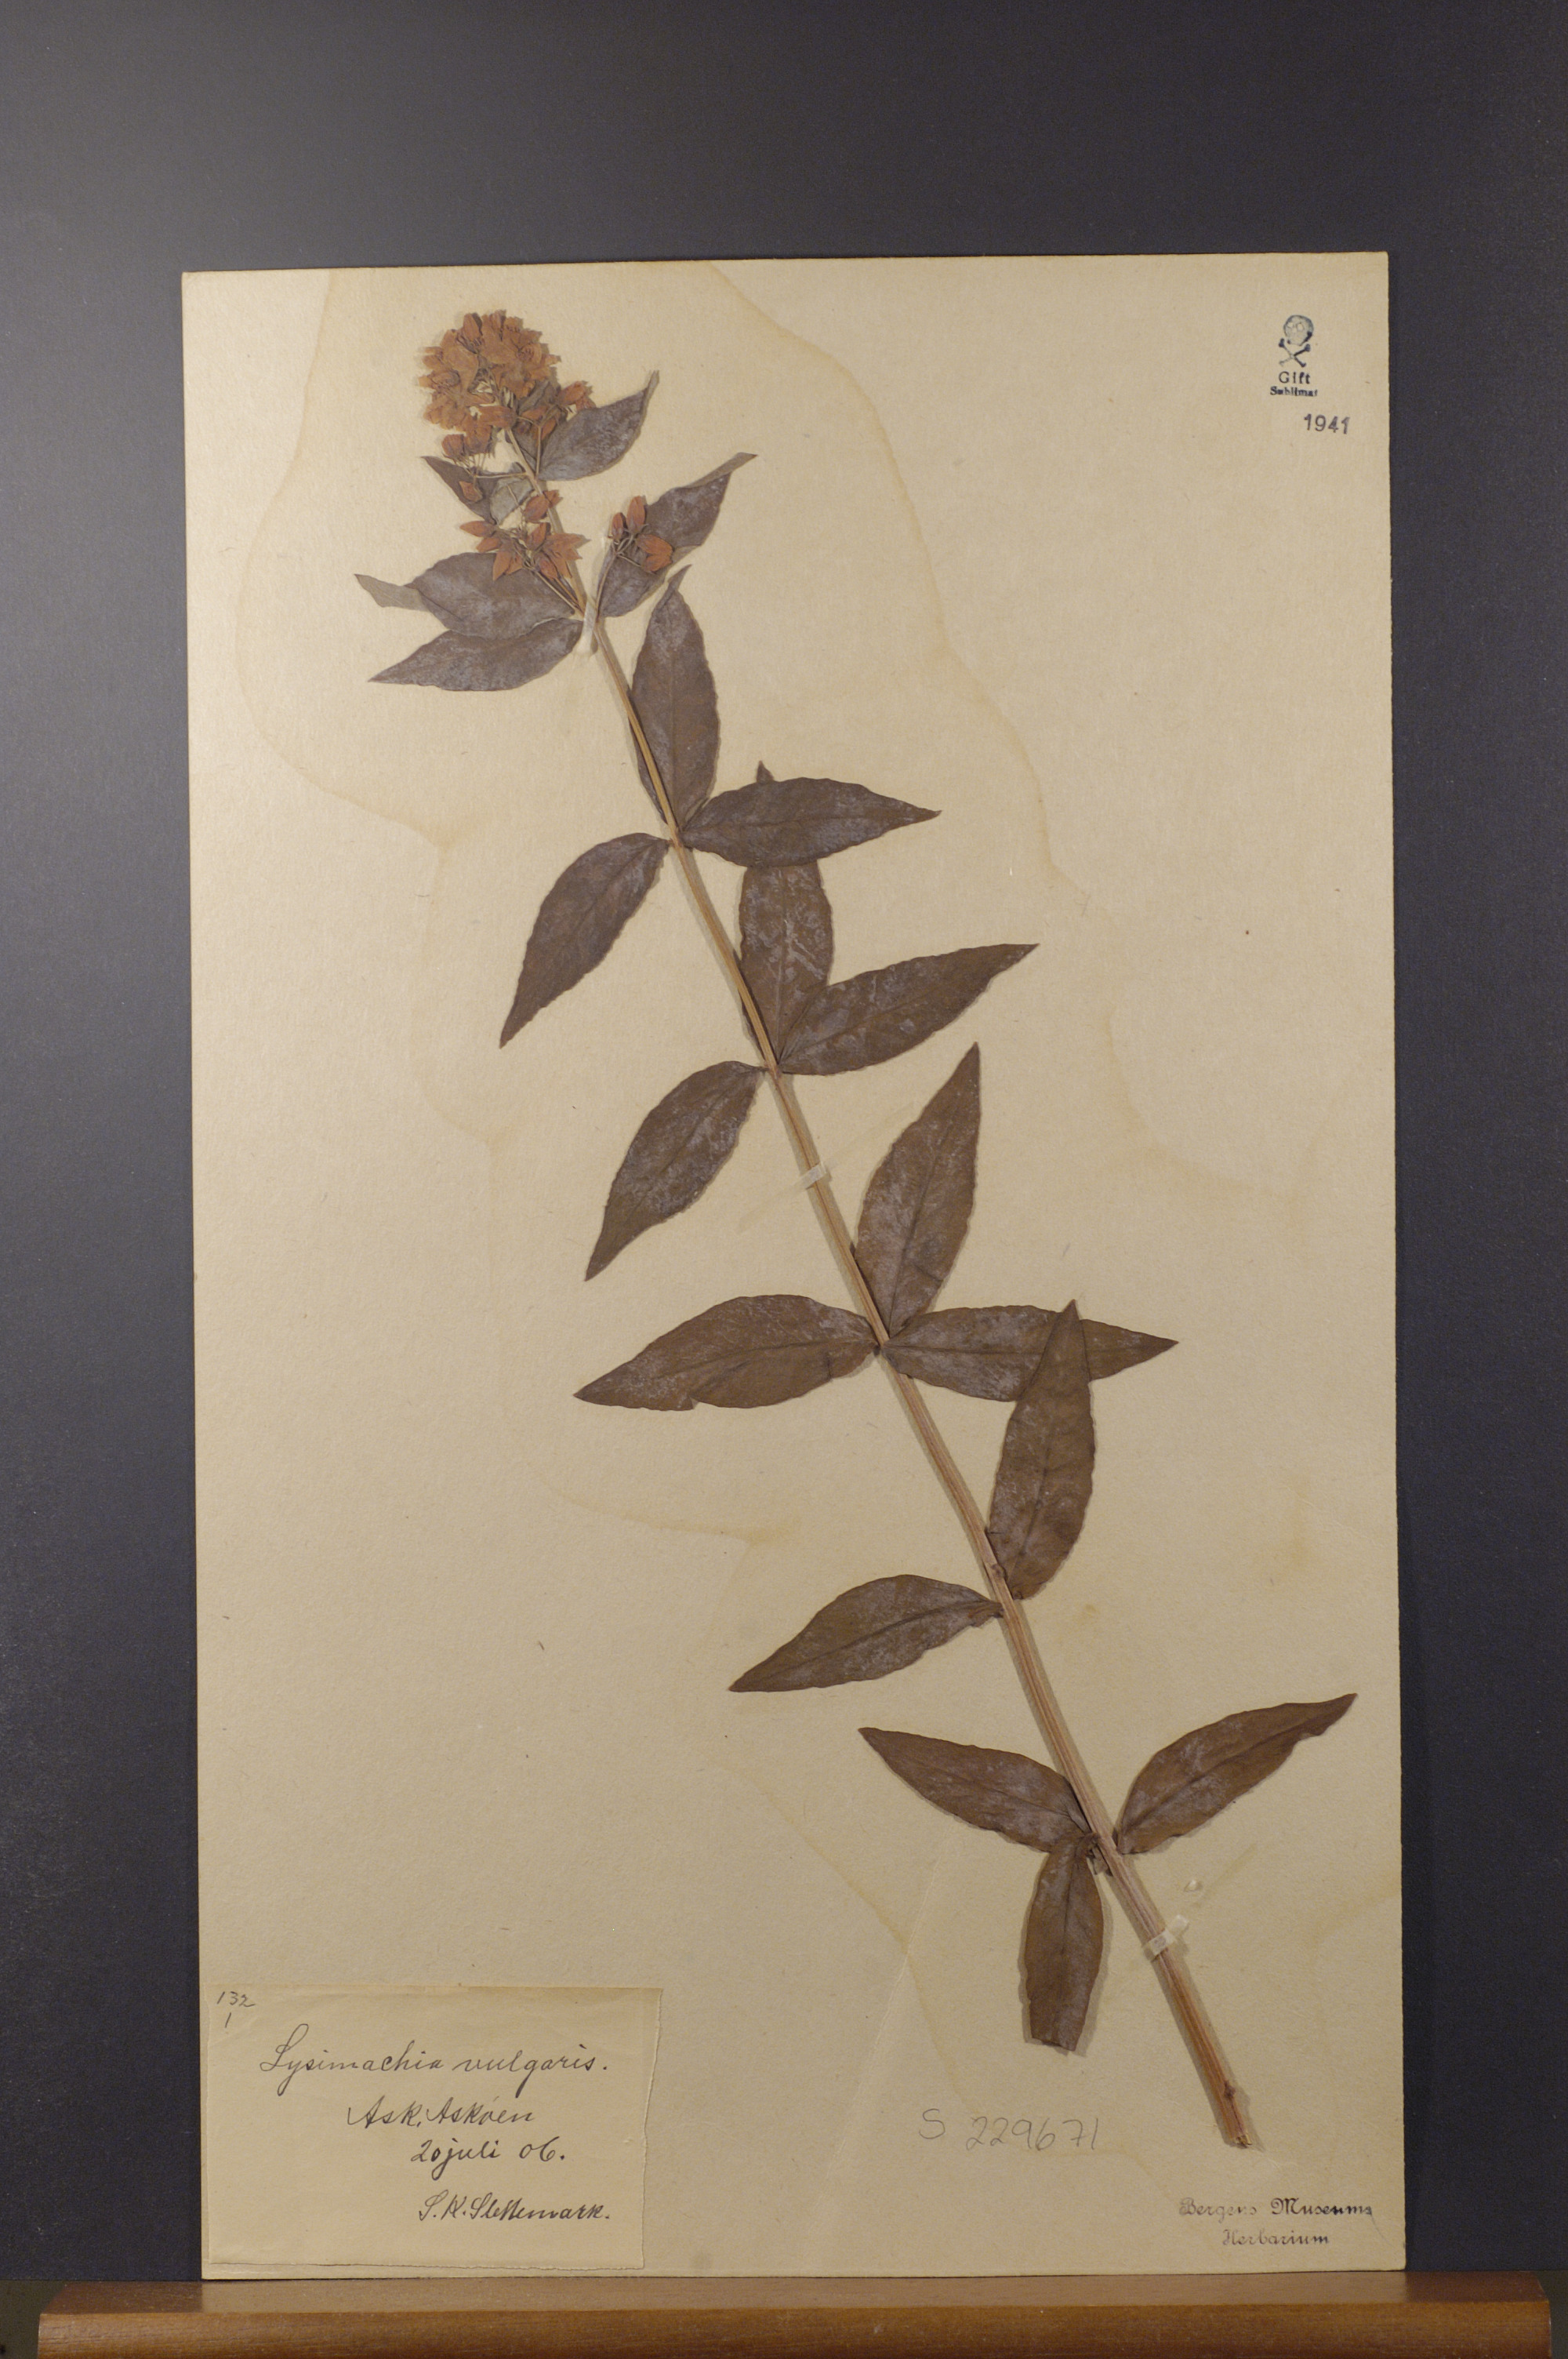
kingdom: Plantae
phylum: Tracheophyta
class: Magnoliopsida
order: Ericales
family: Primulaceae
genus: Lysimachia
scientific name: Lysimachia vulgaris
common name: Yellow loosestrife
